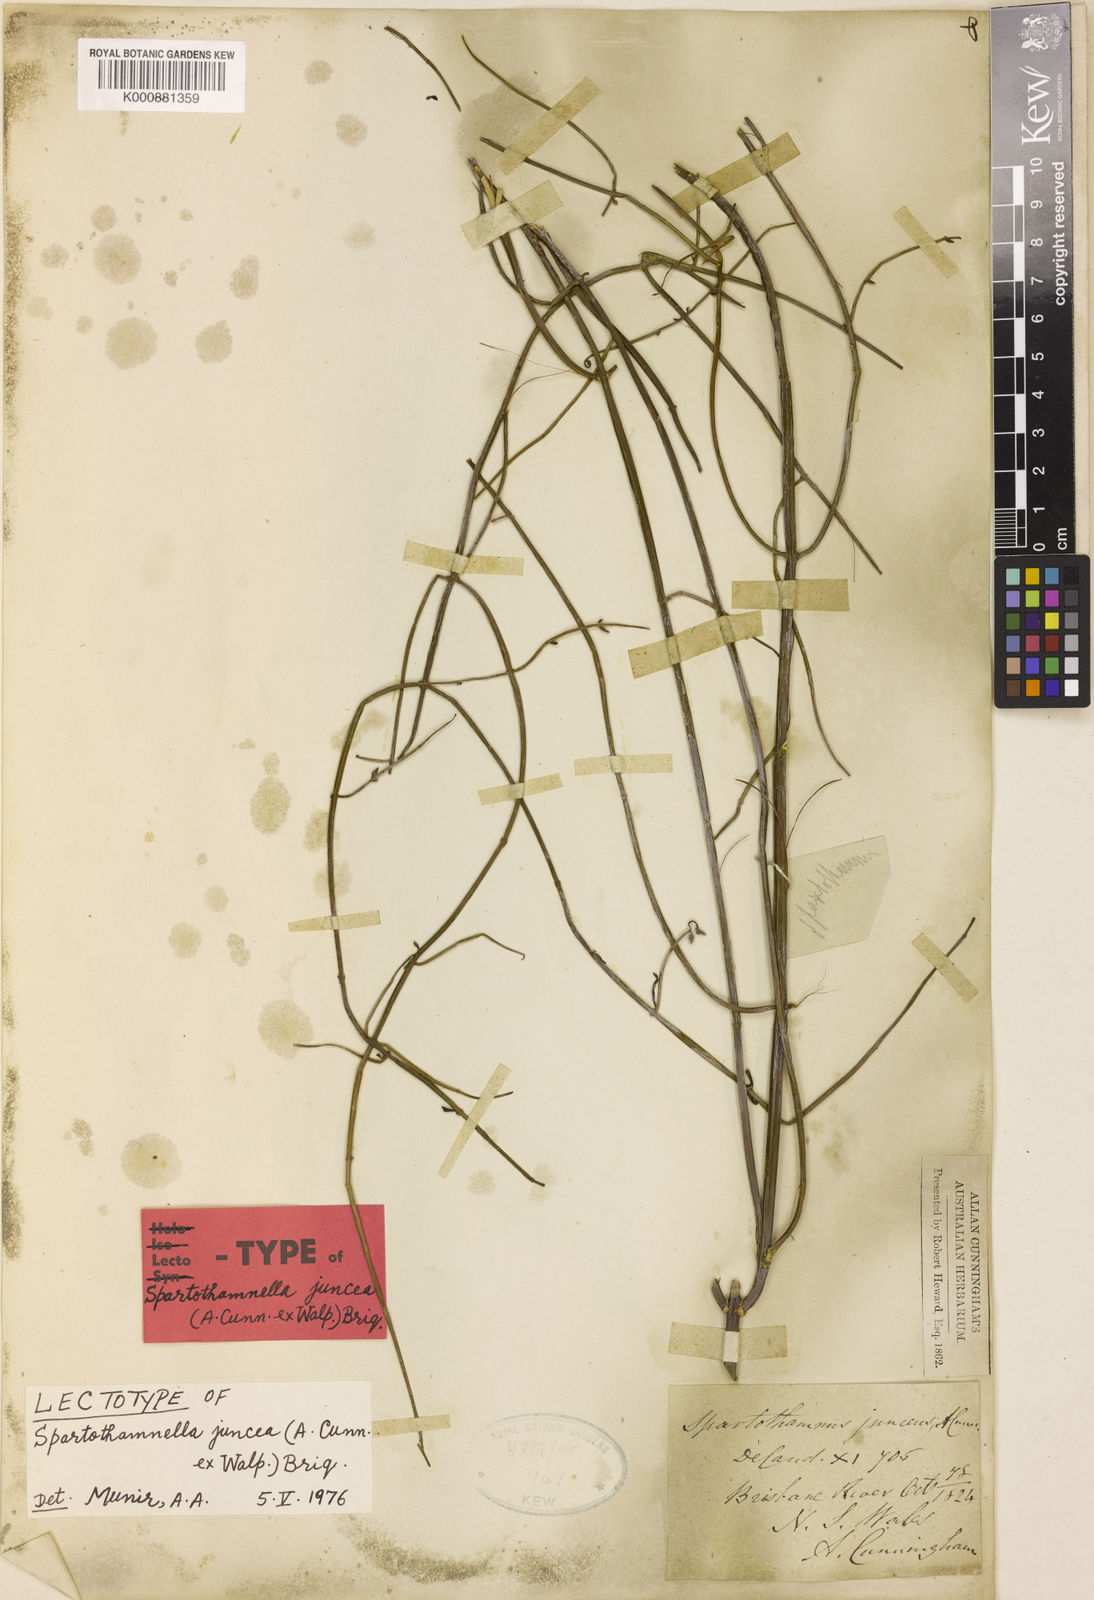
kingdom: Plantae
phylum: Tracheophyta
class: Magnoliopsida
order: Lamiales
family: Lamiaceae
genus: Teucrium
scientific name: Teucrium junceum
